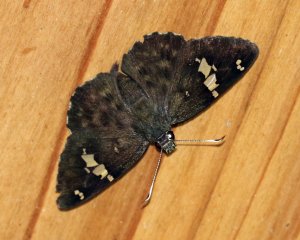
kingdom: Animalia
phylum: Arthropoda
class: Insecta
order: Lepidoptera
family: Hesperiidae
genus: Celaenorrhinus
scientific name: Celaenorrhinus fritzgaertneri
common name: Fritzgaertner's Flat
